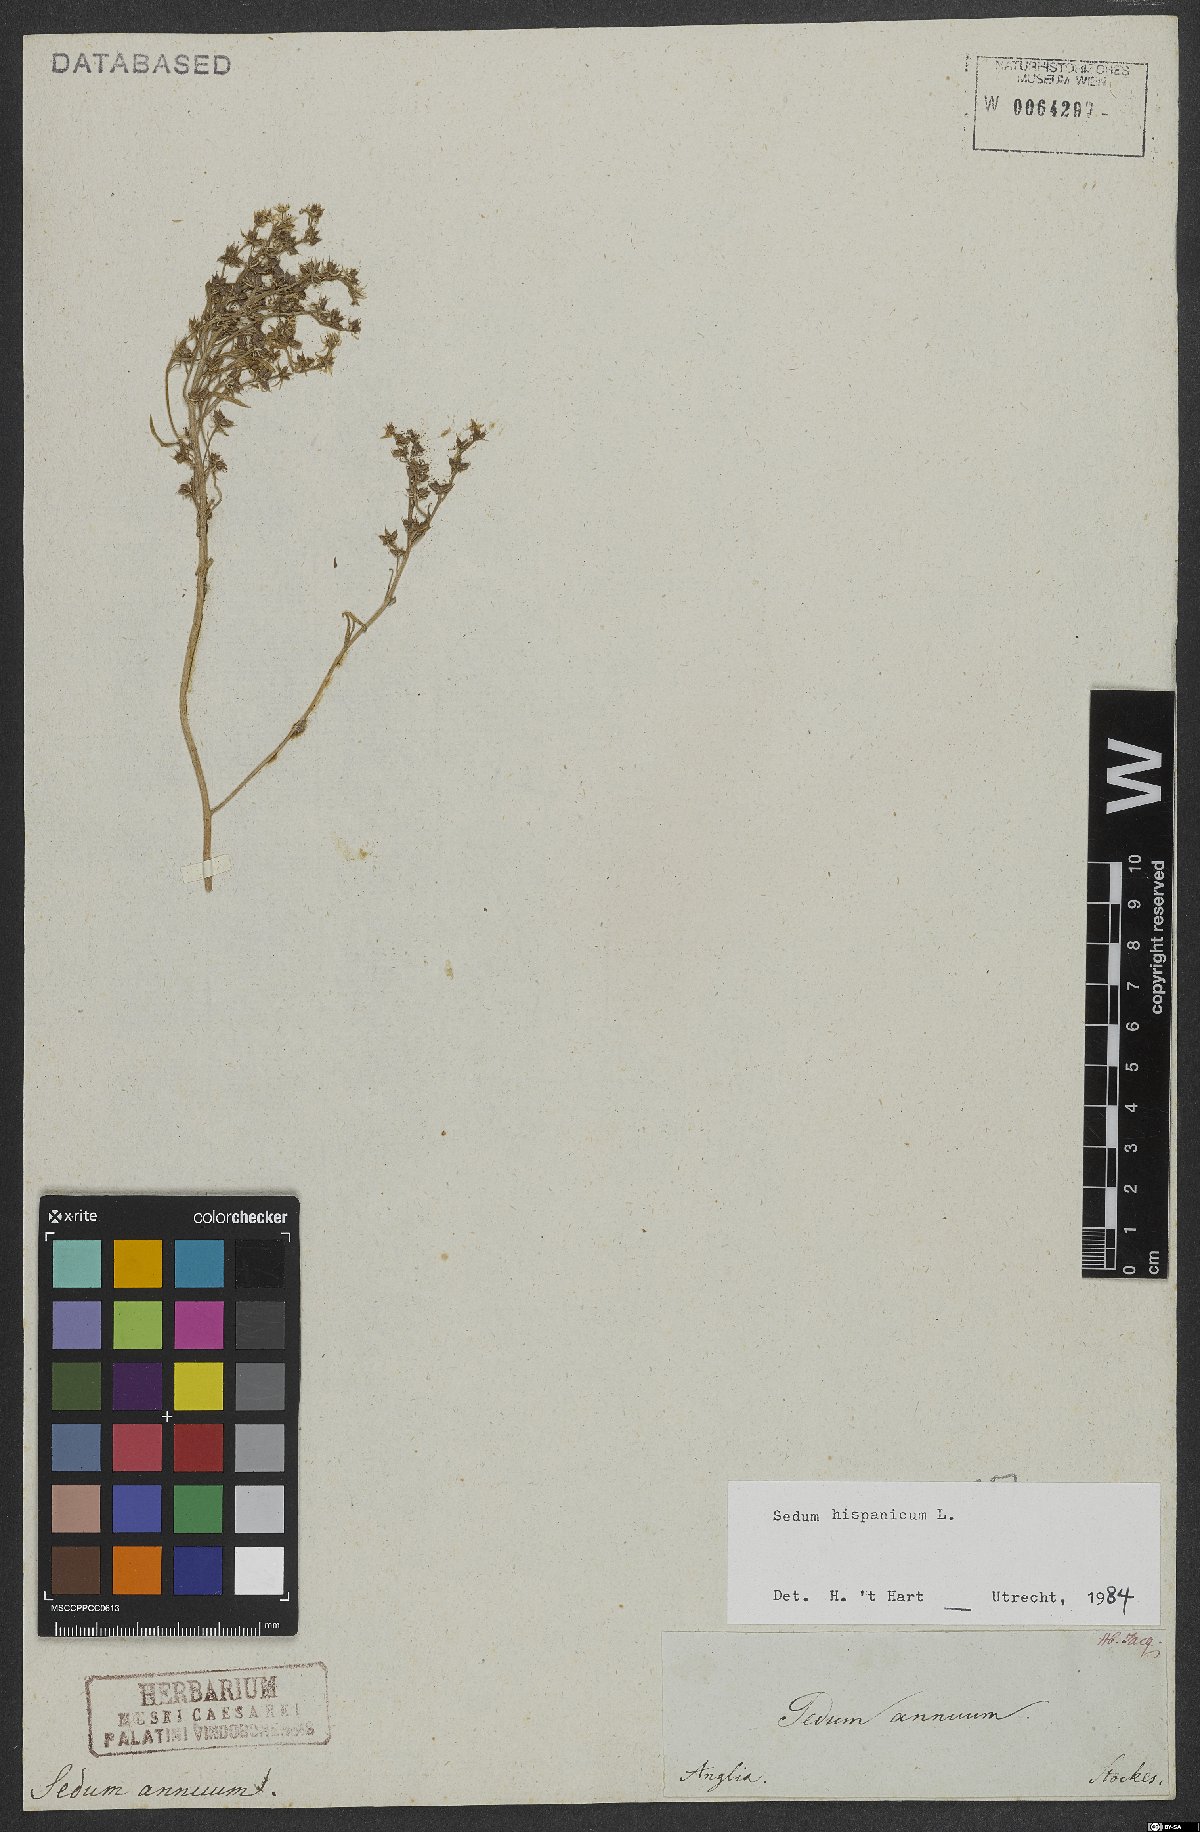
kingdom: Plantae
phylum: Tracheophyta
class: Magnoliopsida
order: Saxifragales
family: Crassulaceae
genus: Sedum
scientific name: Sedum hispanicum
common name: Spanish stonecrop
